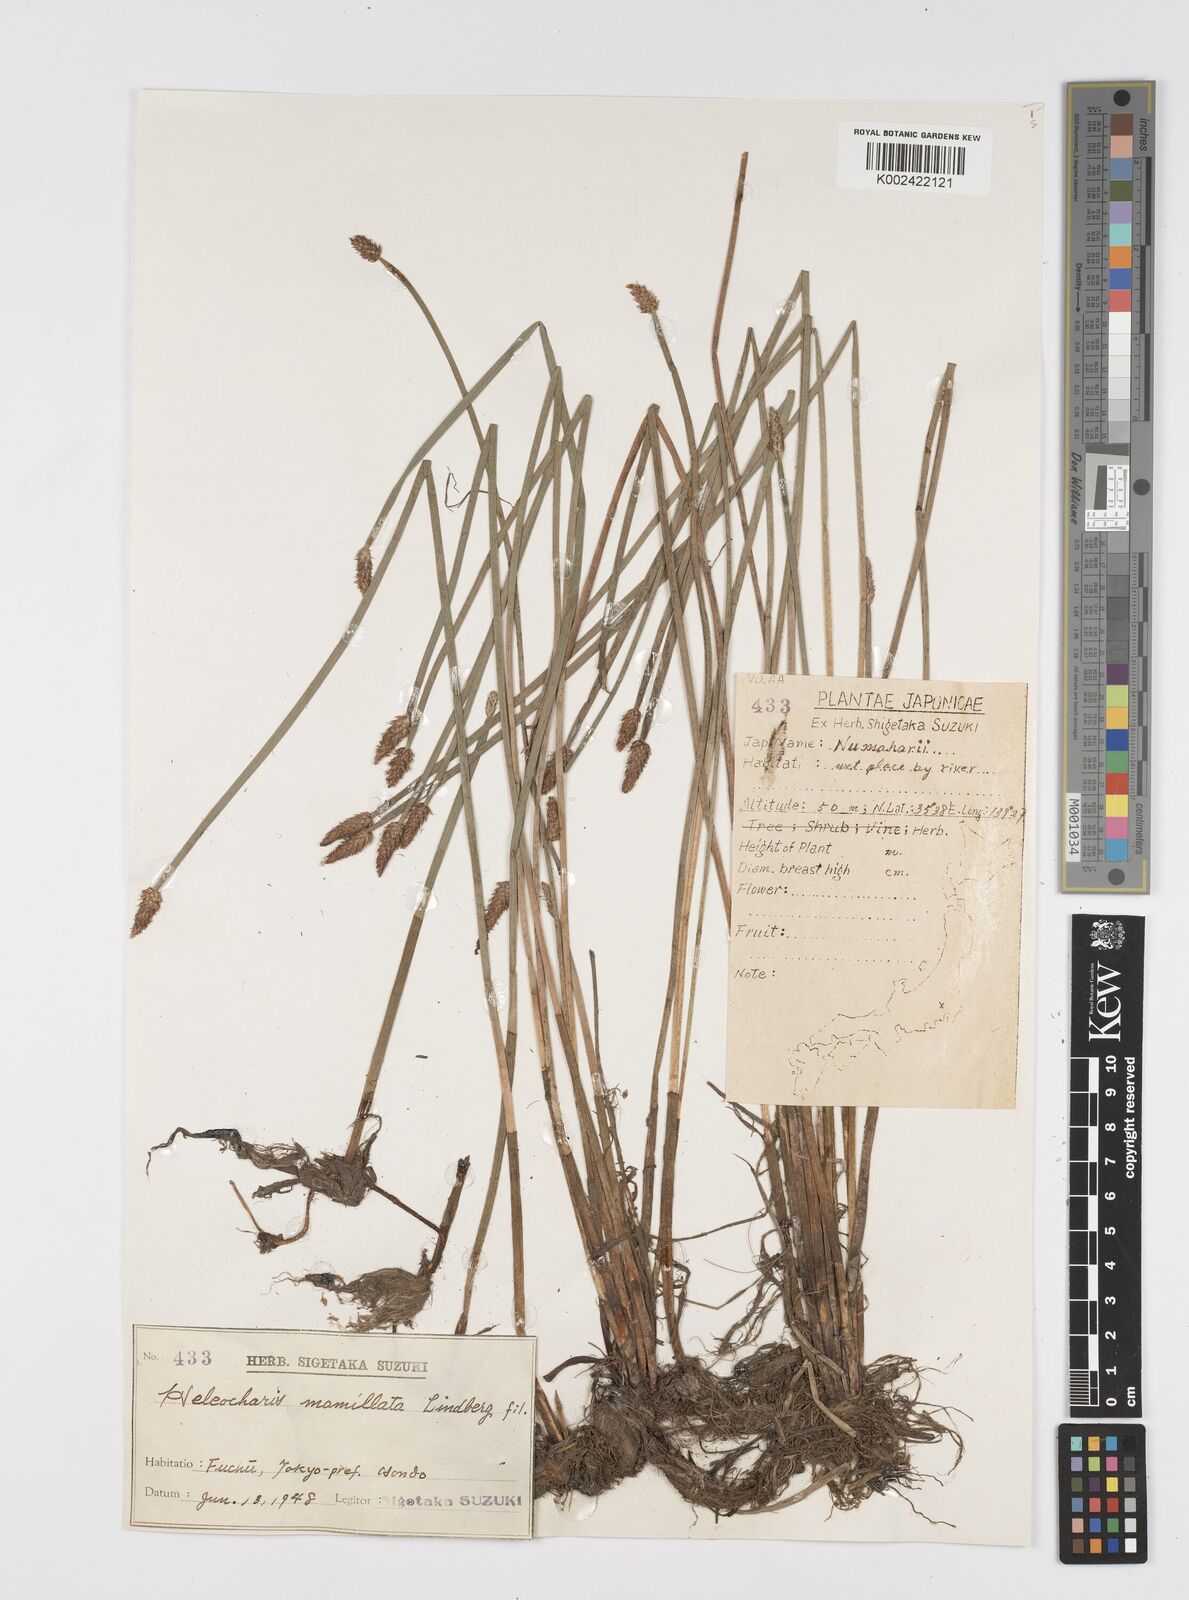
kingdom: Plantae
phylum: Tracheophyta
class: Liliopsida
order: Poales
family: Cyperaceae
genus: Eleocharis
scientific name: Eleocharis mamillata
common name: Northern spike-rush
